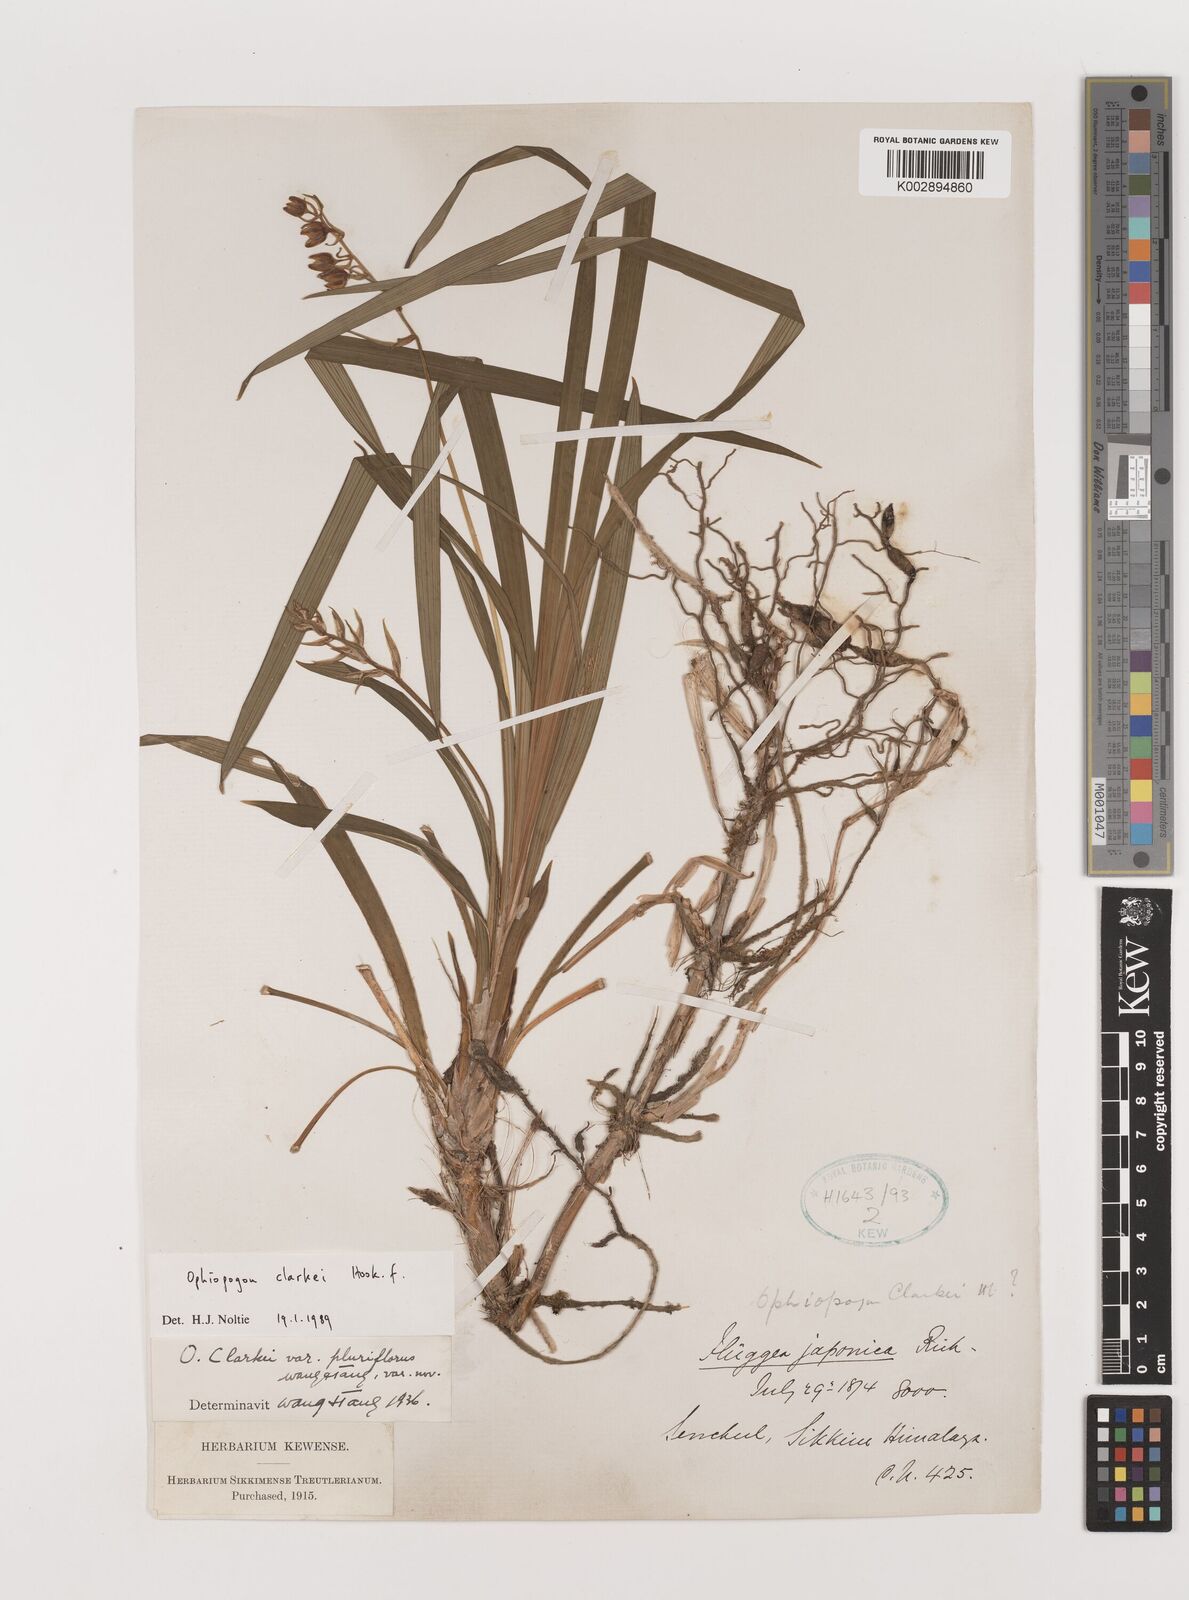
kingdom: Plantae
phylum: Tracheophyta
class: Liliopsida
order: Asparagales
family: Asparagaceae
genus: Ophiopogon
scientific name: Ophiopogon clarkei
